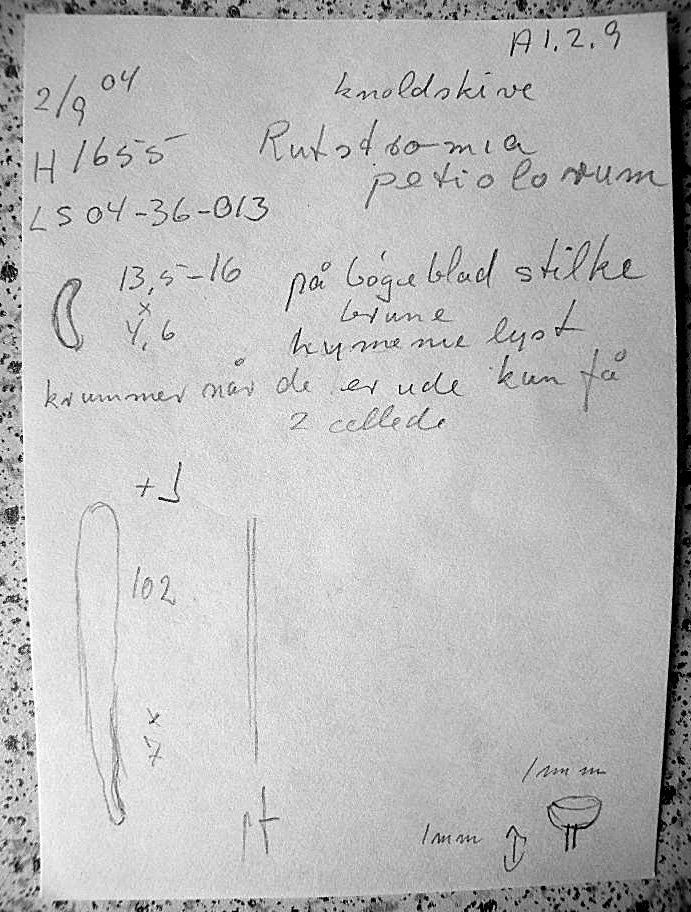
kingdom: Fungi
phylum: Ascomycota
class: Leotiomycetes
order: Helotiales
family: Rutstroemiaceae
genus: Rutstroemia
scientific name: Rutstroemia petiolorum
